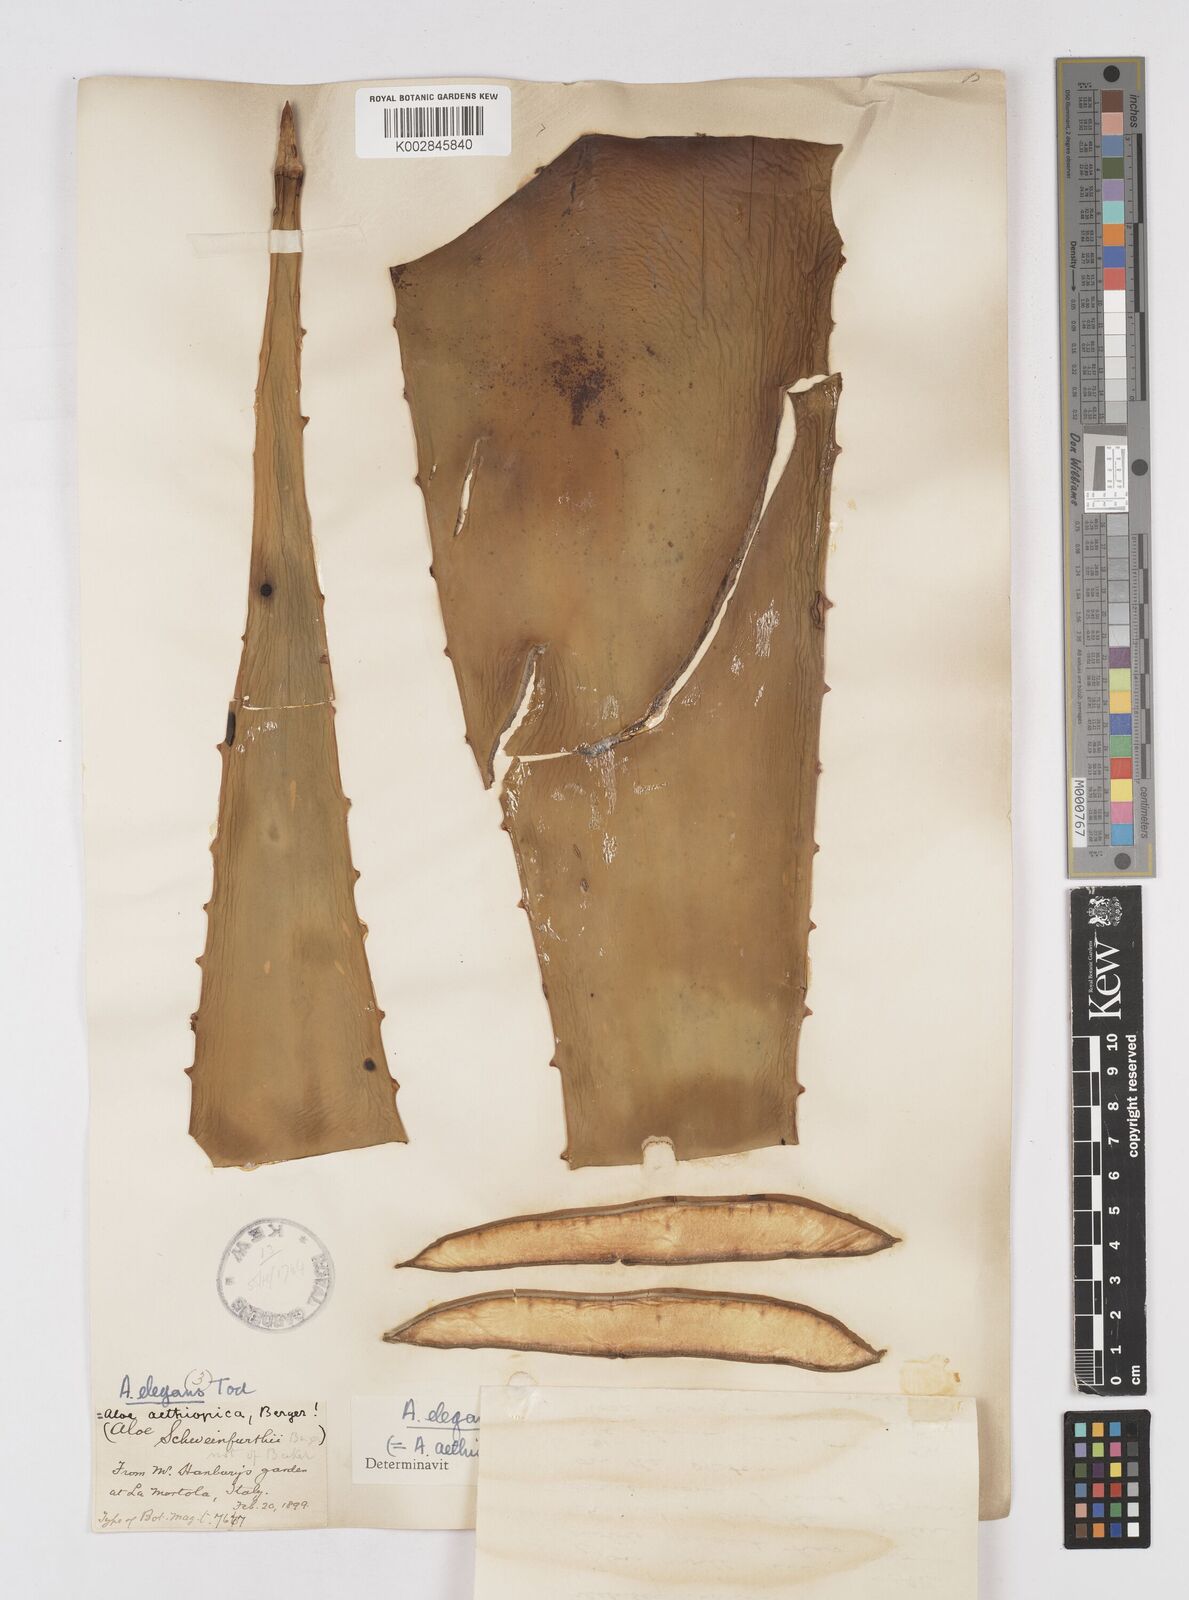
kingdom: Plantae
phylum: Tracheophyta
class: Liliopsida
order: Asparagales
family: Asphodelaceae
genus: Aloe
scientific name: Aloe elegans
